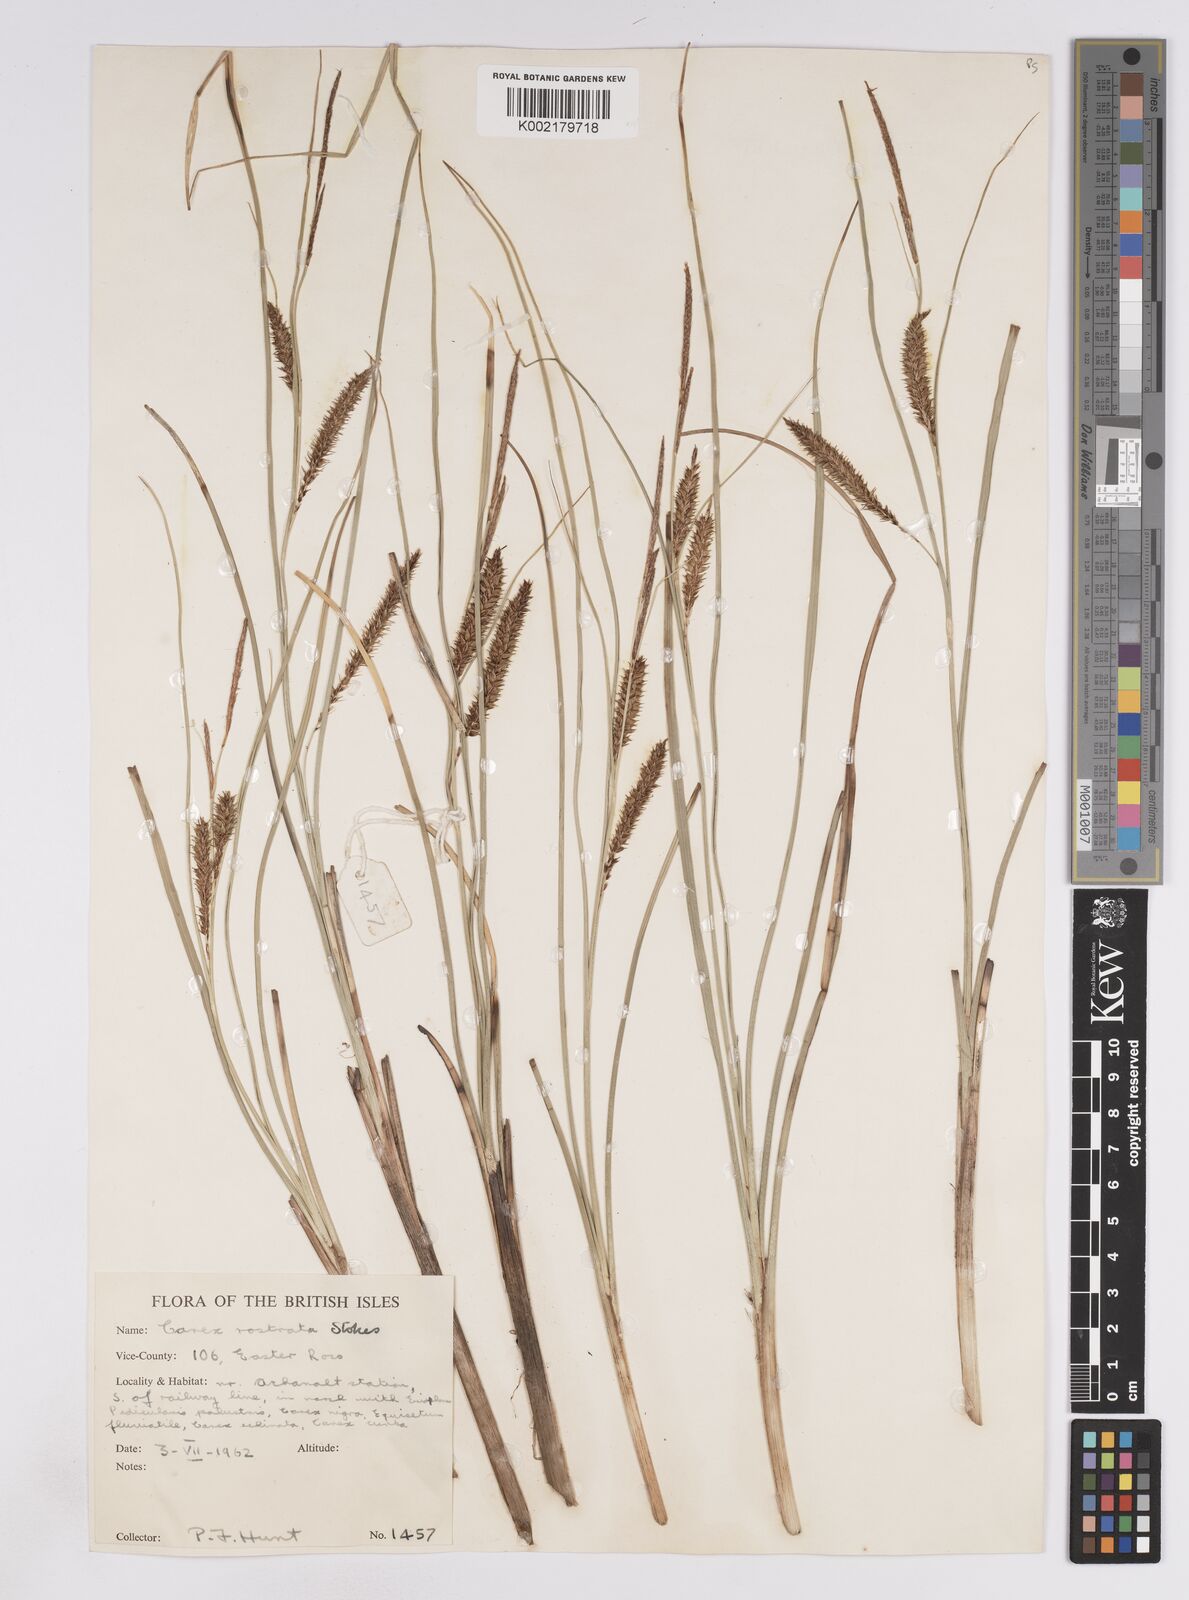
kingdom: Plantae
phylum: Tracheophyta
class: Liliopsida
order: Poales
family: Cyperaceae
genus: Carex
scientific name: Carex rostrata
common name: Bottle sedge
